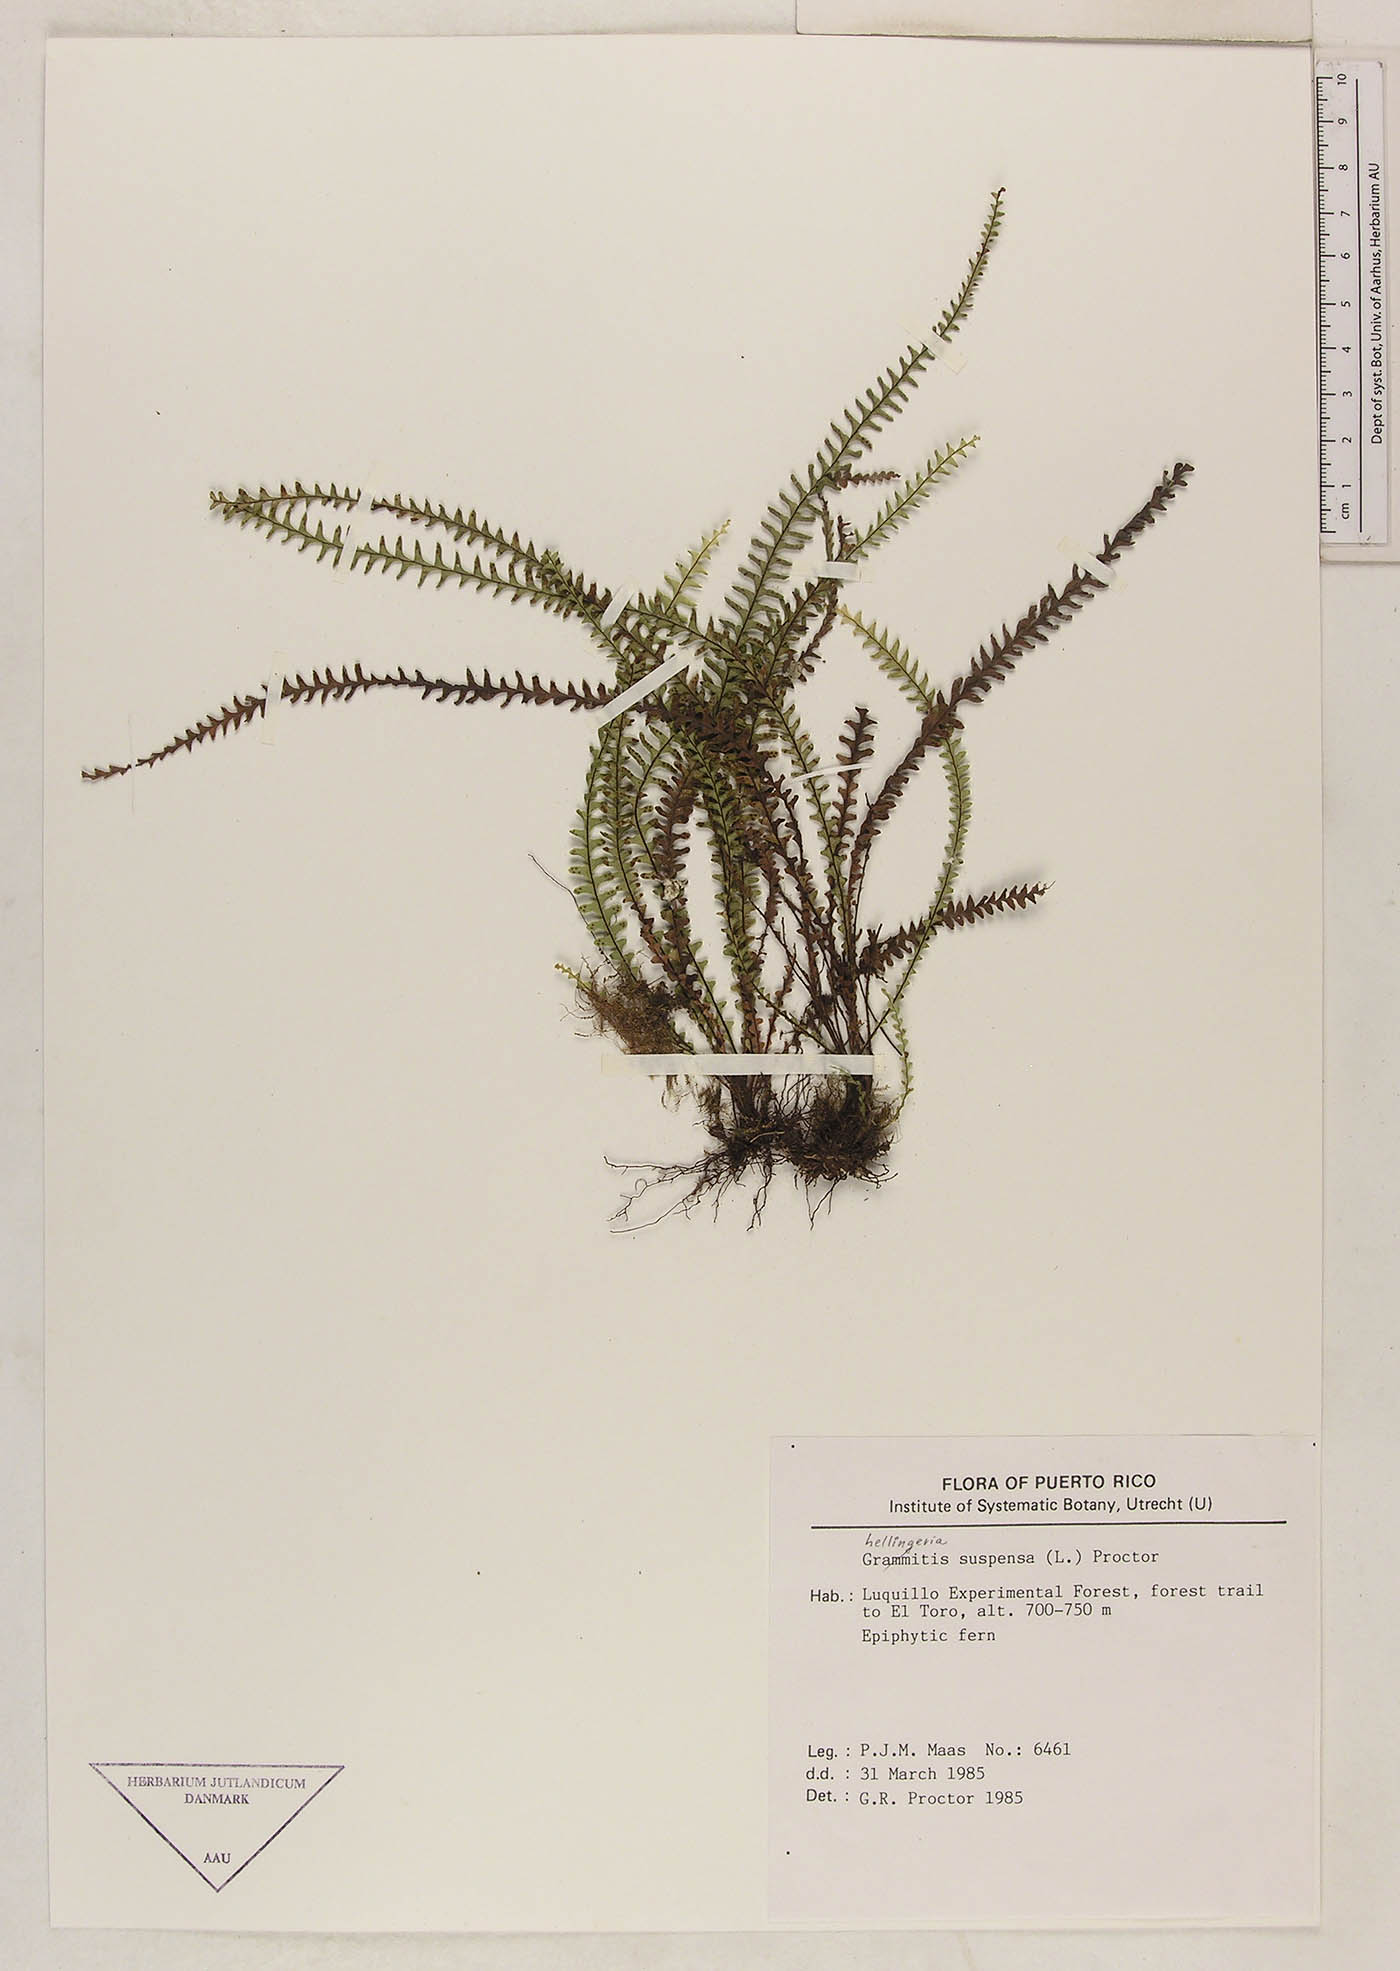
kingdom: Plantae
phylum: Tracheophyta
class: Polypodiopsida
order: Polypodiales
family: Polypodiaceae
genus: Lellingeria
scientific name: Lellingeria suspensa
